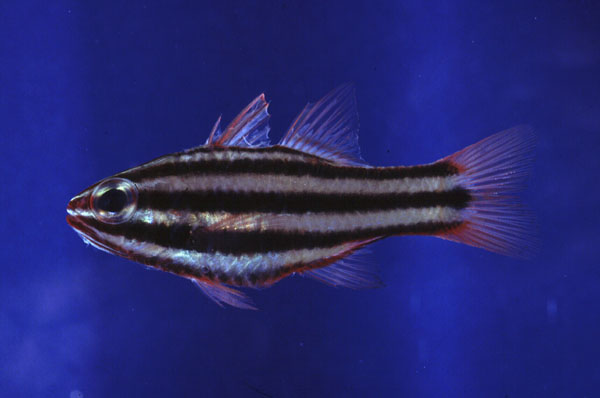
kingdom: Animalia
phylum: Chordata
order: Perciformes
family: Apogonidae
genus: Ostorhinchus
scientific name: Ostorhinchus angustatus
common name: Narrow-striped cardinalfish
